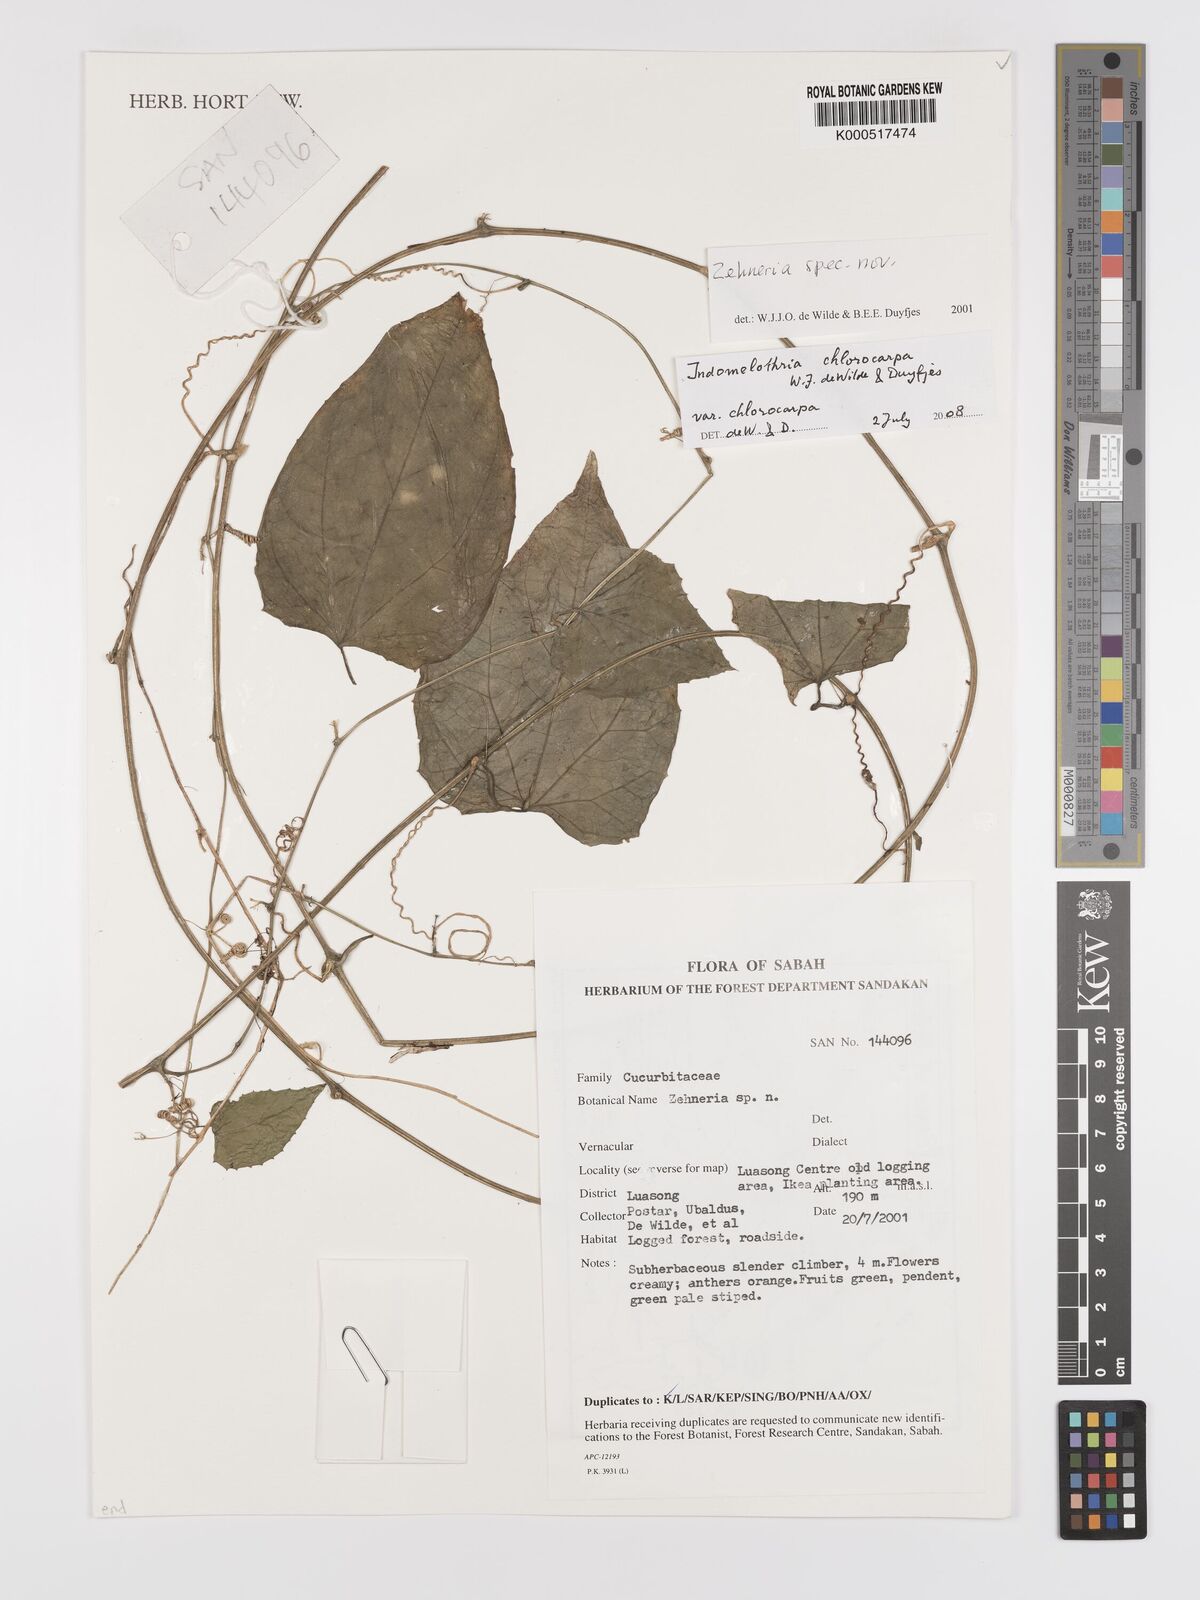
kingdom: Plantae
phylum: Tracheophyta
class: Magnoliopsida
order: Cucurbitales
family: Cucurbitaceae
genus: Indomelothria
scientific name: Indomelothria chlorocarpa
